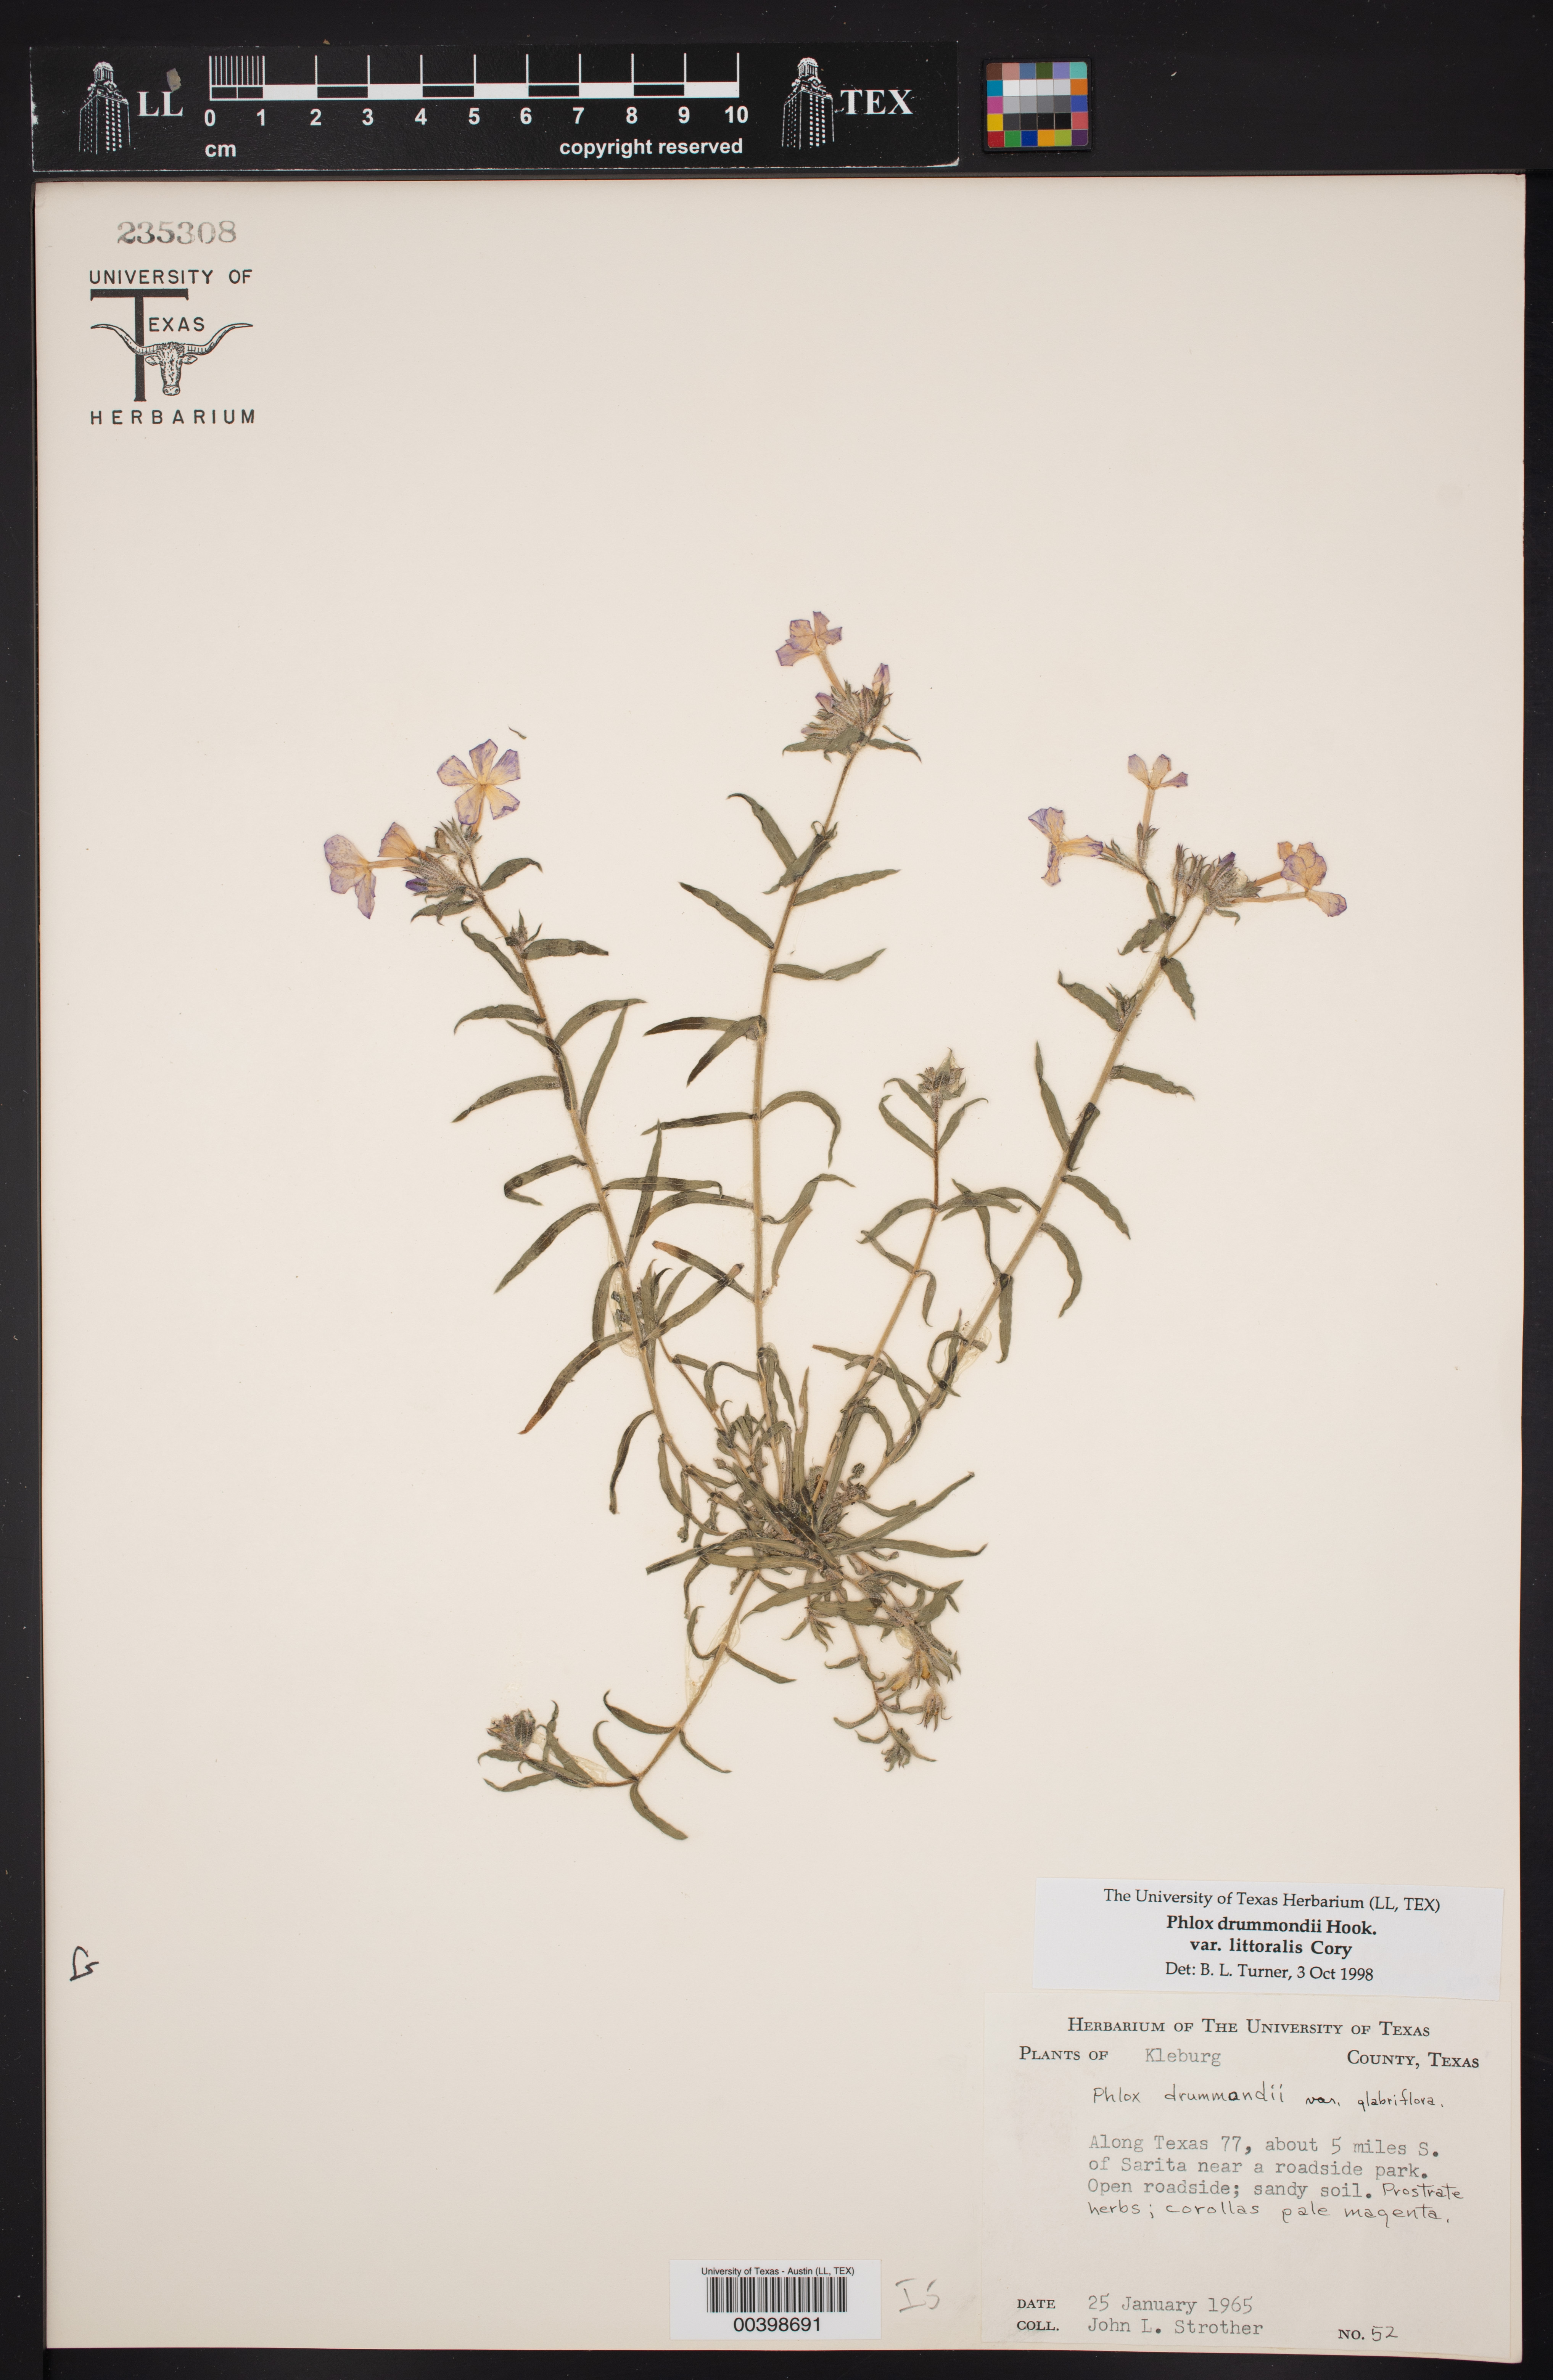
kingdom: Plantae
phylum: Tracheophyta
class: Magnoliopsida
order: Ericales
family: Polemoniaceae
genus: Phlox
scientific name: Phlox glabriflora
